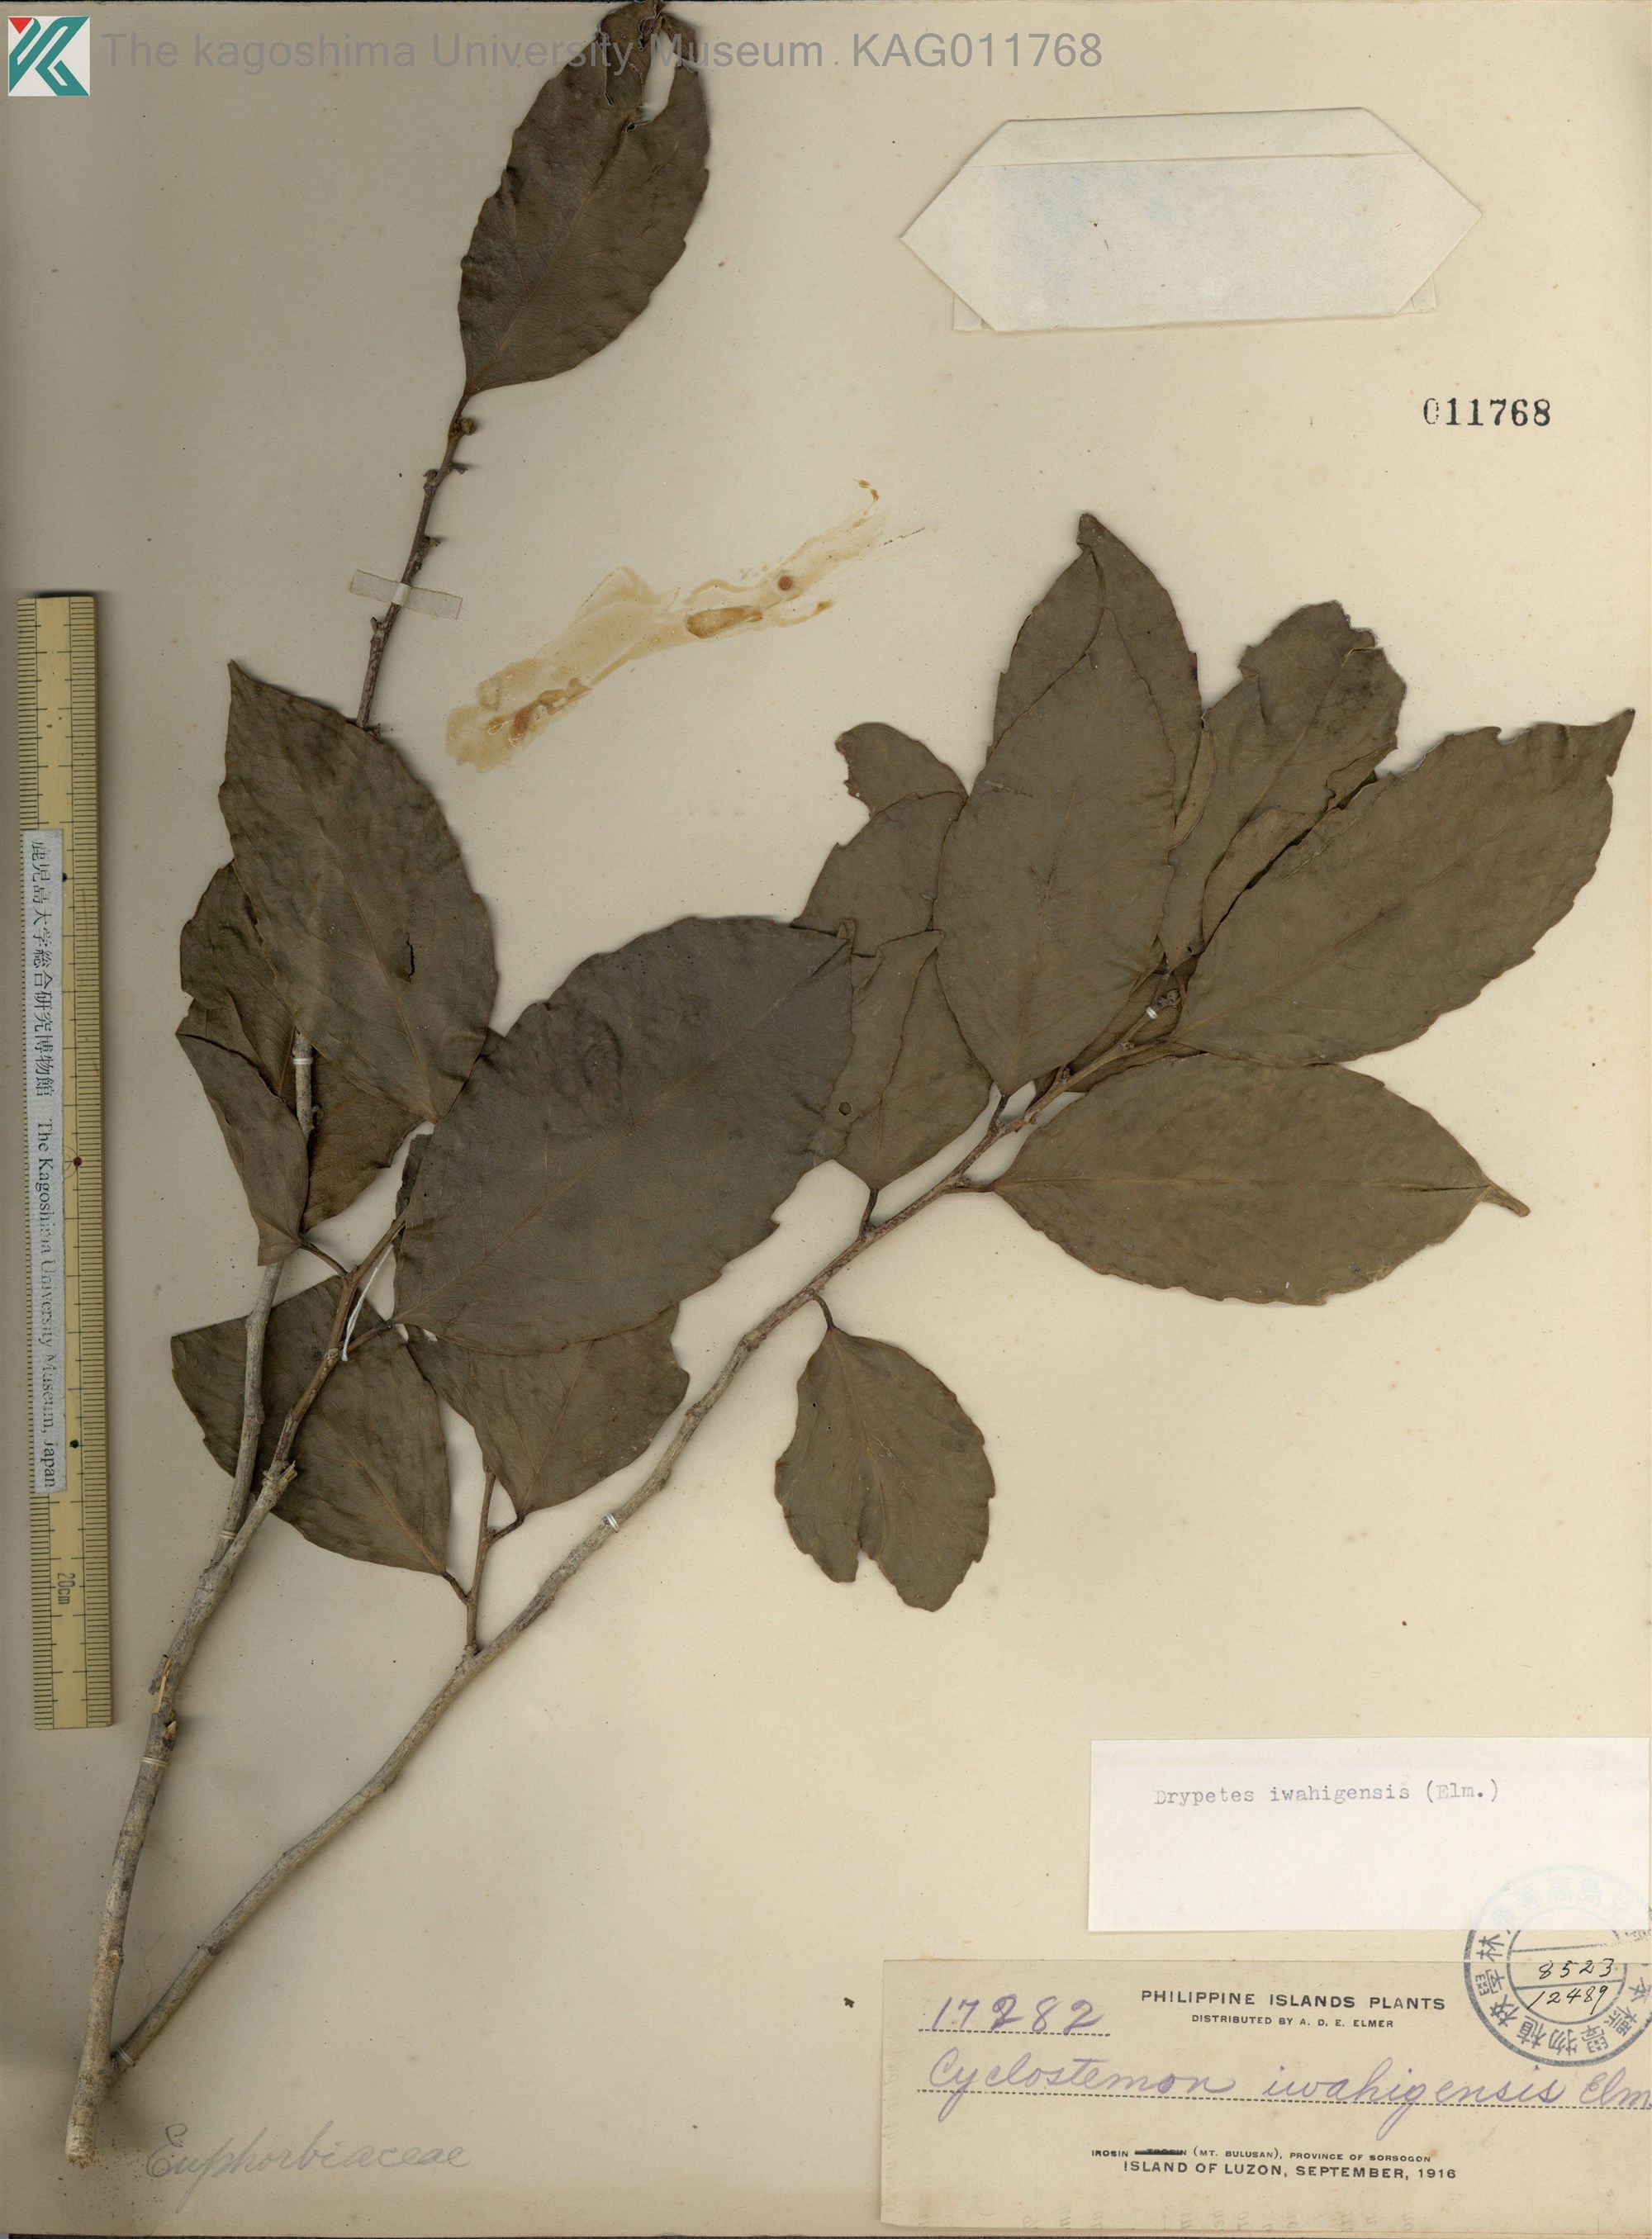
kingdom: Plantae
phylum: Tracheophyta
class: Magnoliopsida
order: Malpighiales
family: Putranjivaceae
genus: Drypetes
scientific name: Drypetes
